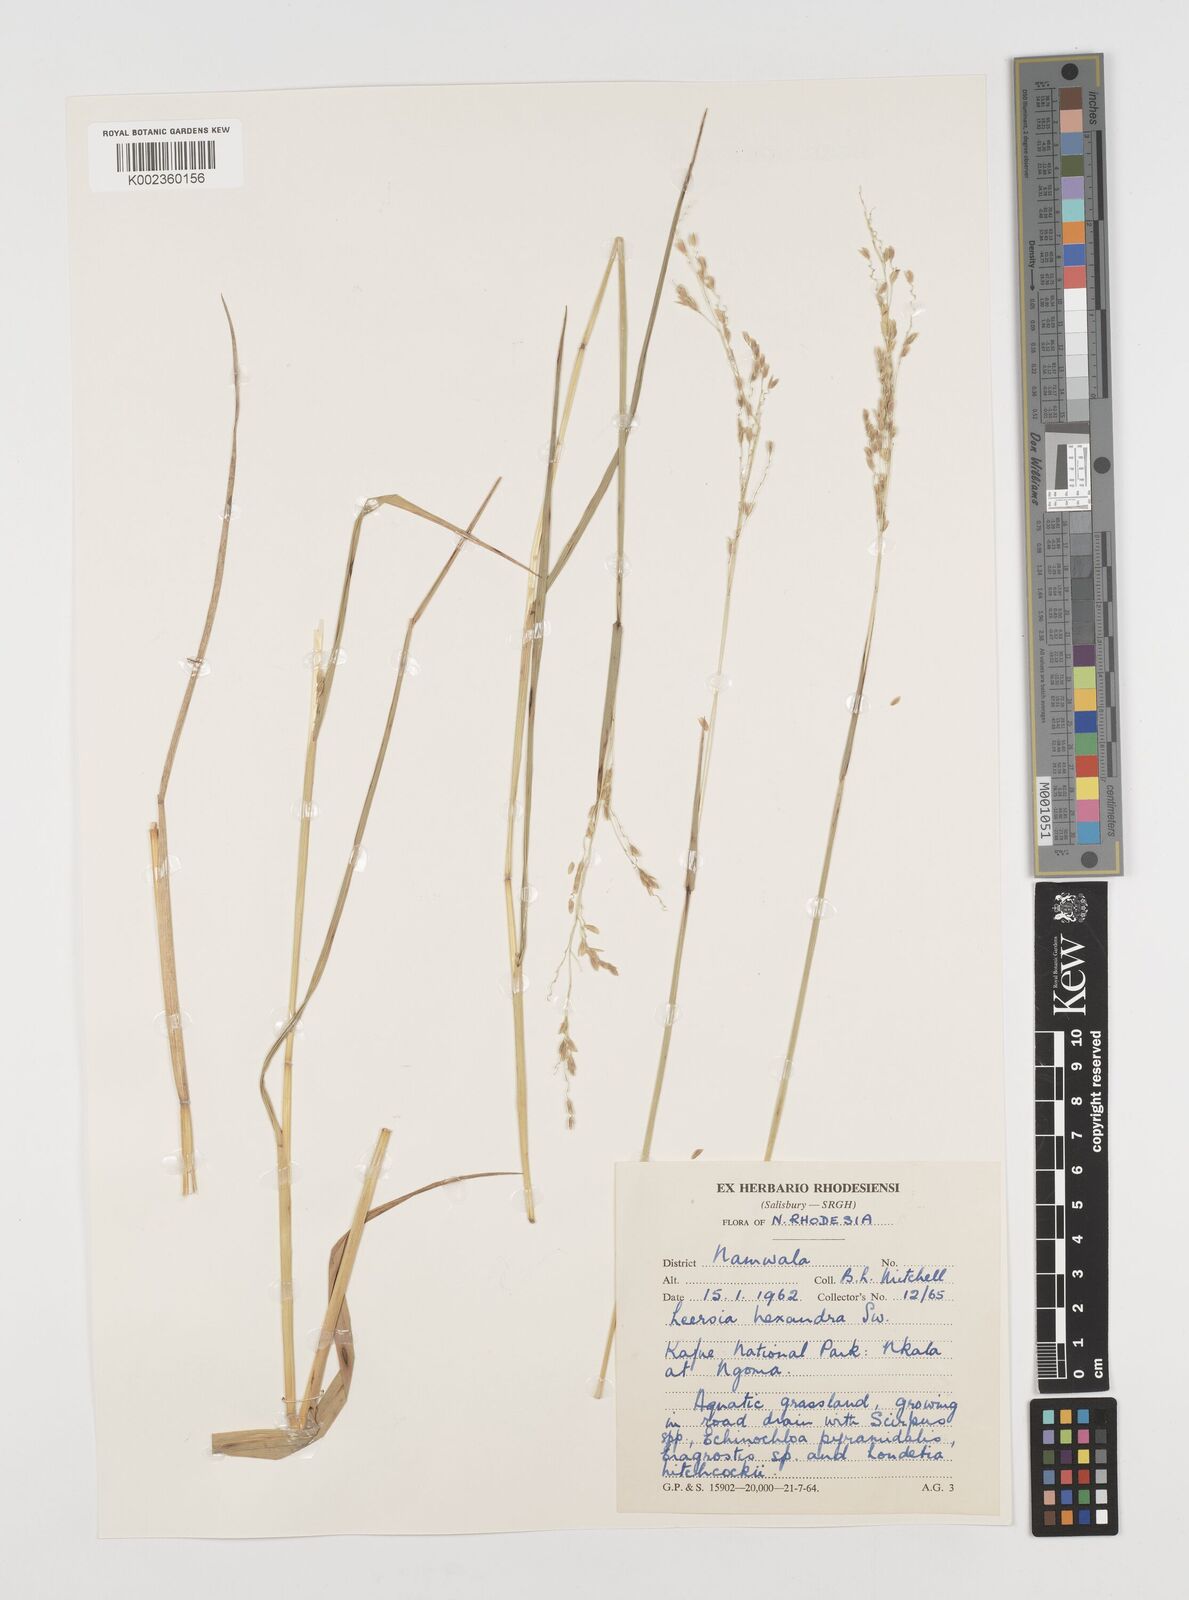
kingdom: Plantae
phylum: Tracheophyta
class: Liliopsida
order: Poales
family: Poaceae
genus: Leersia
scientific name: Leersia hexandra
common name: Southern cut grass
